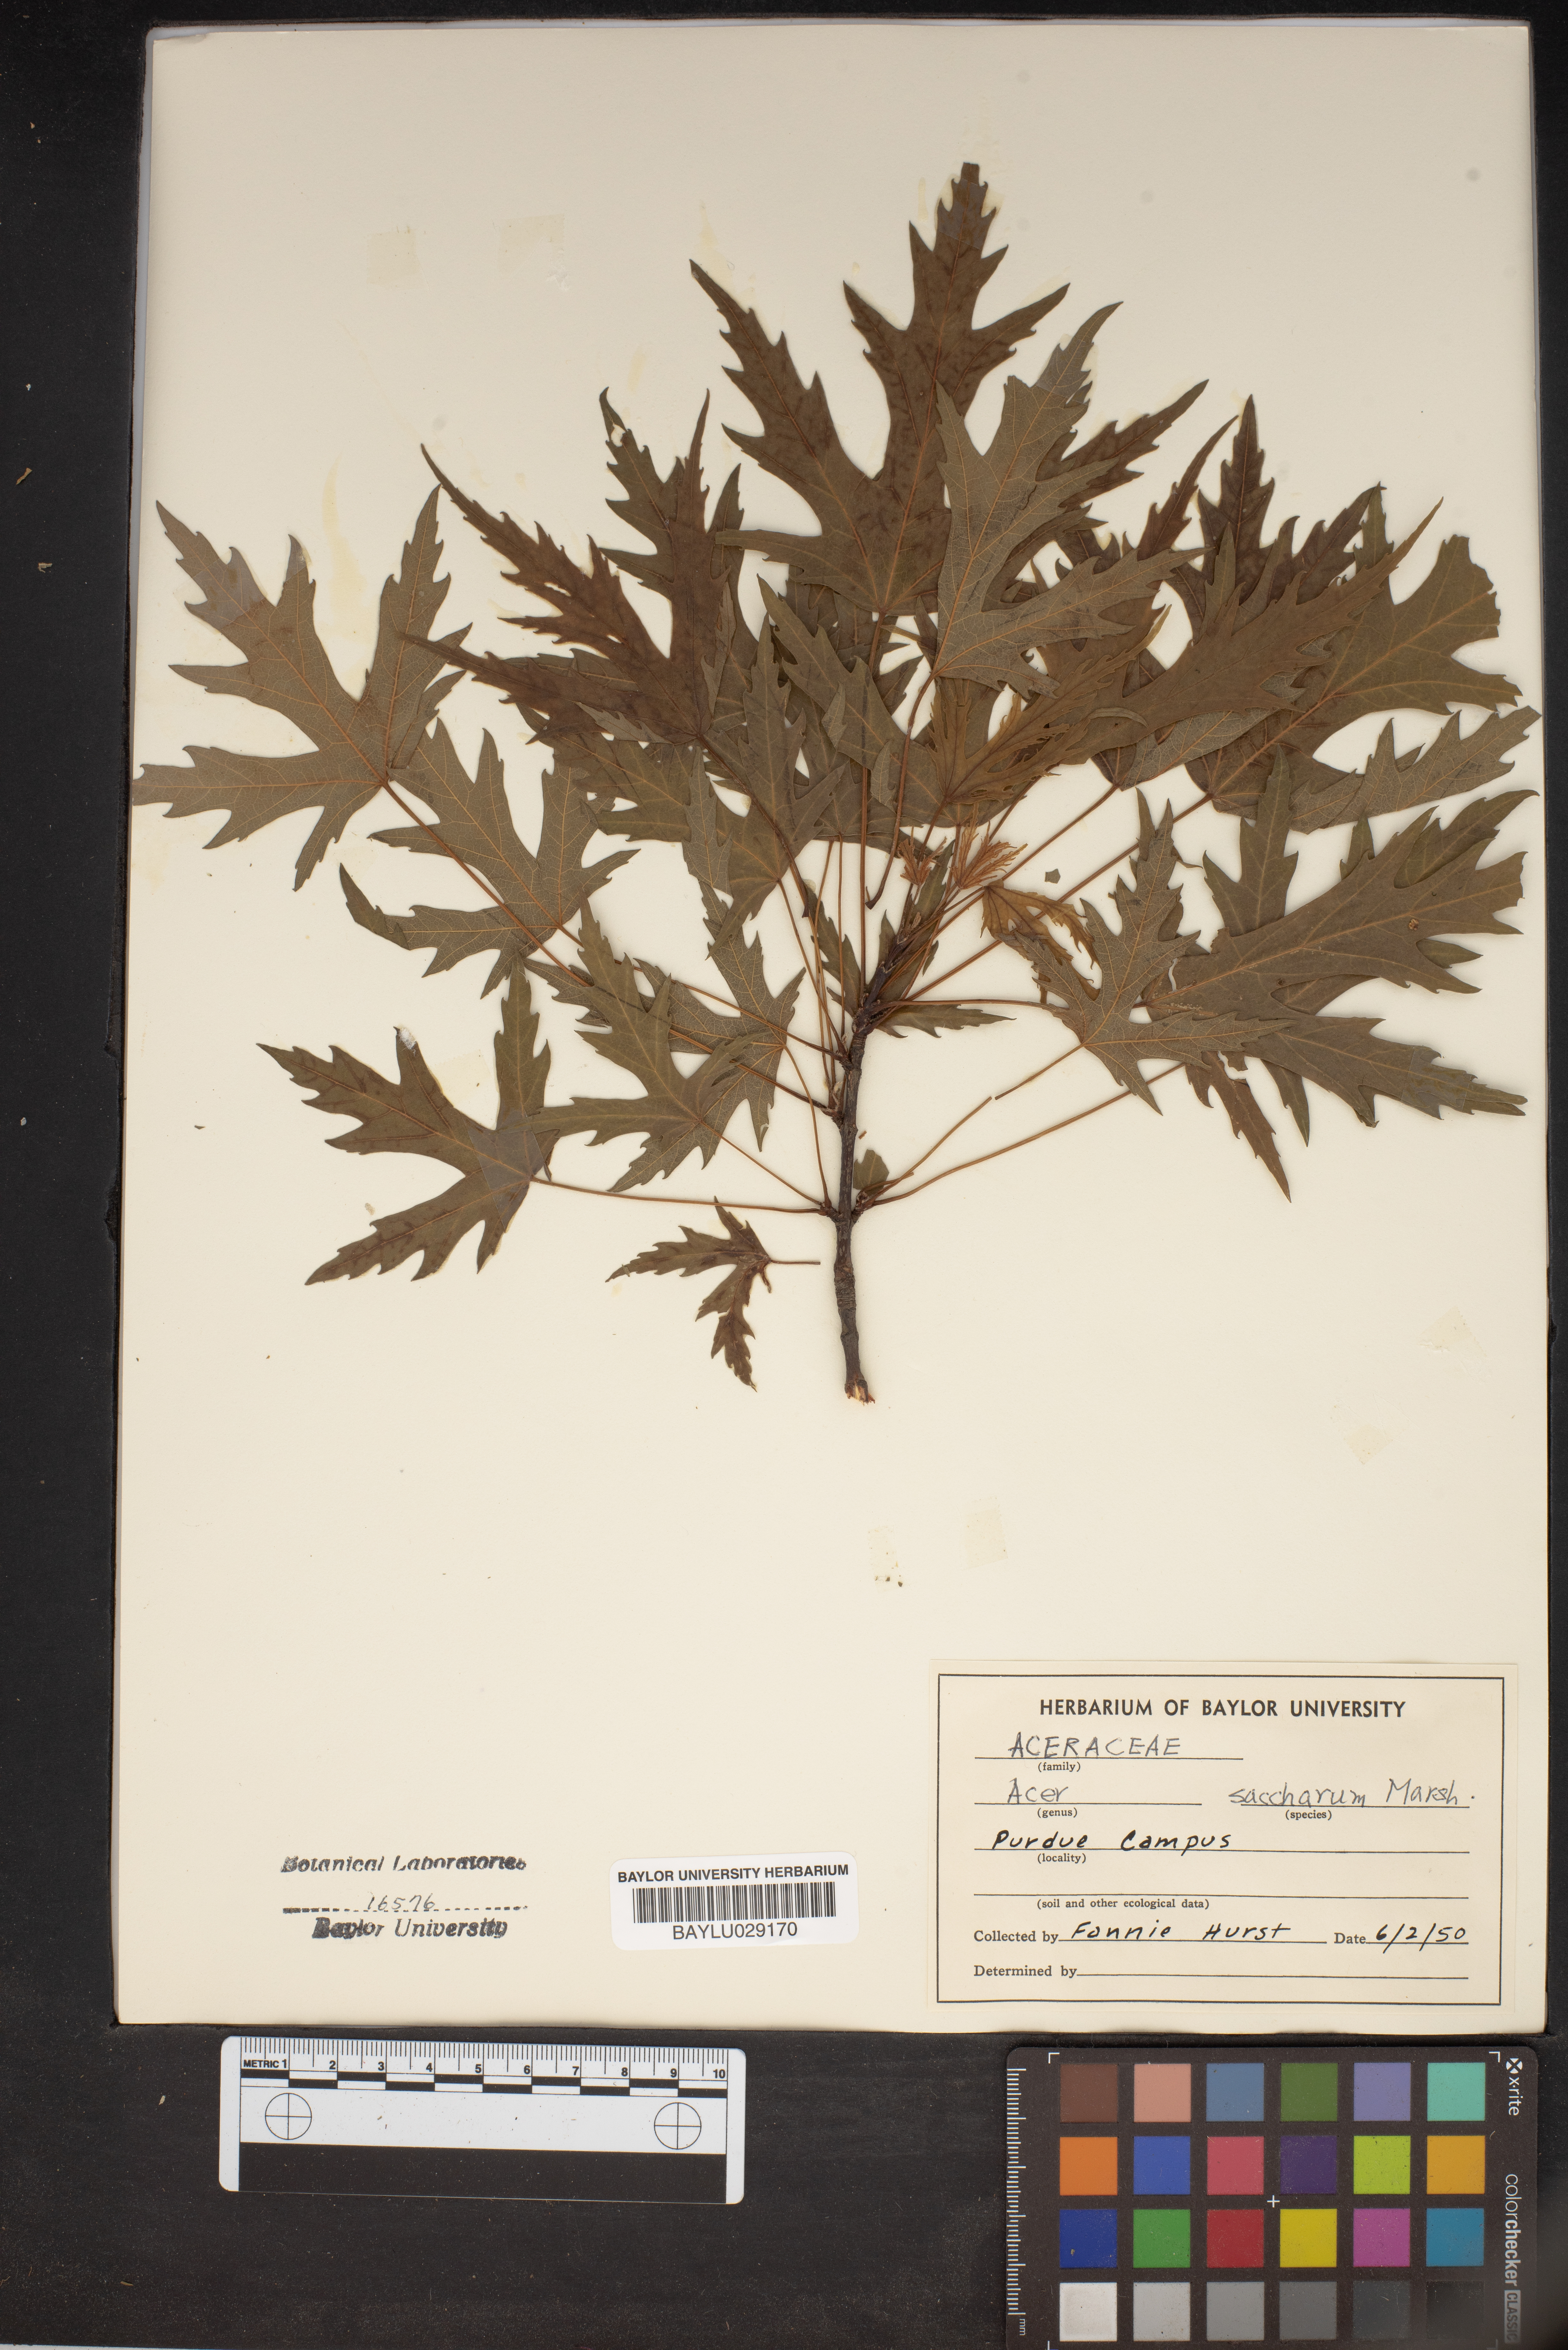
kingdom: Plantae
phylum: Tracheophyta
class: Magnoliopsida
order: Sapindales
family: Sapindaceae
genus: Acer
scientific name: Acer saccharum
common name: Sugar maple
